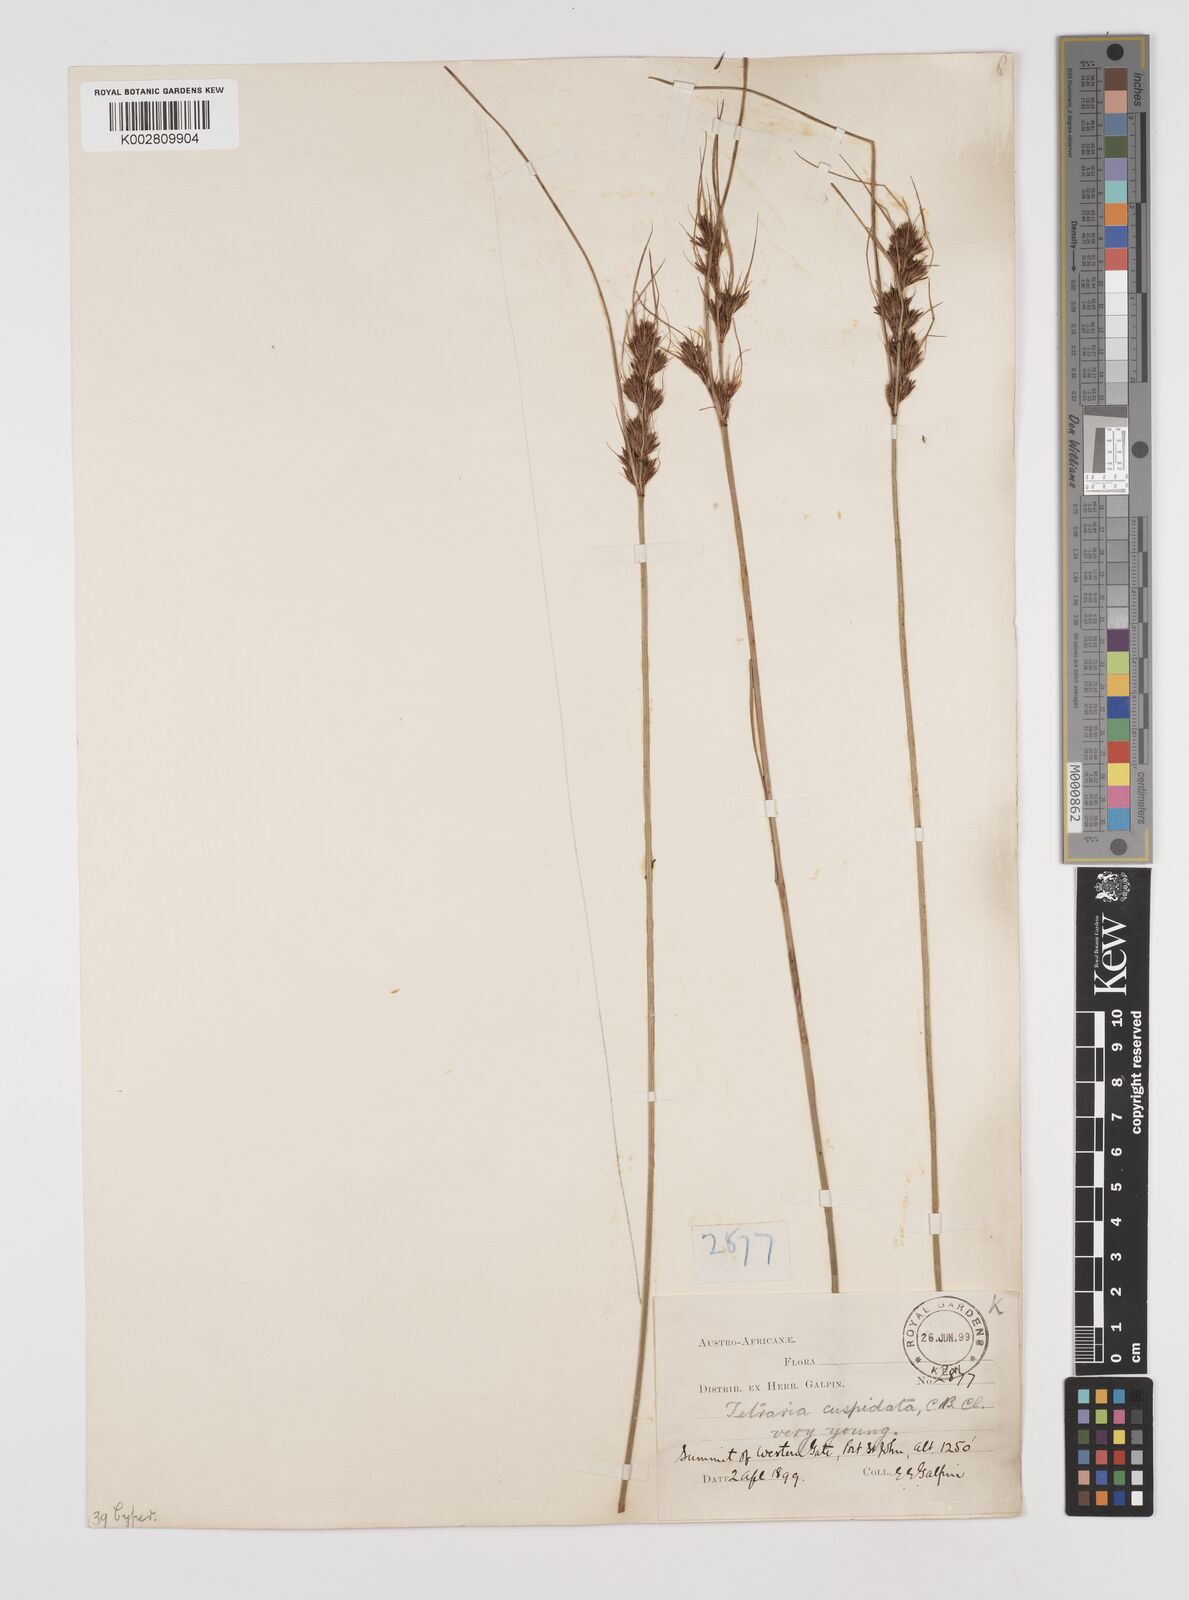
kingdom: Plantae
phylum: Tracheophyta
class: Liliopsida
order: Poales
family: Cyperaceae
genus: Schoenus
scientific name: Schoenus loreus
